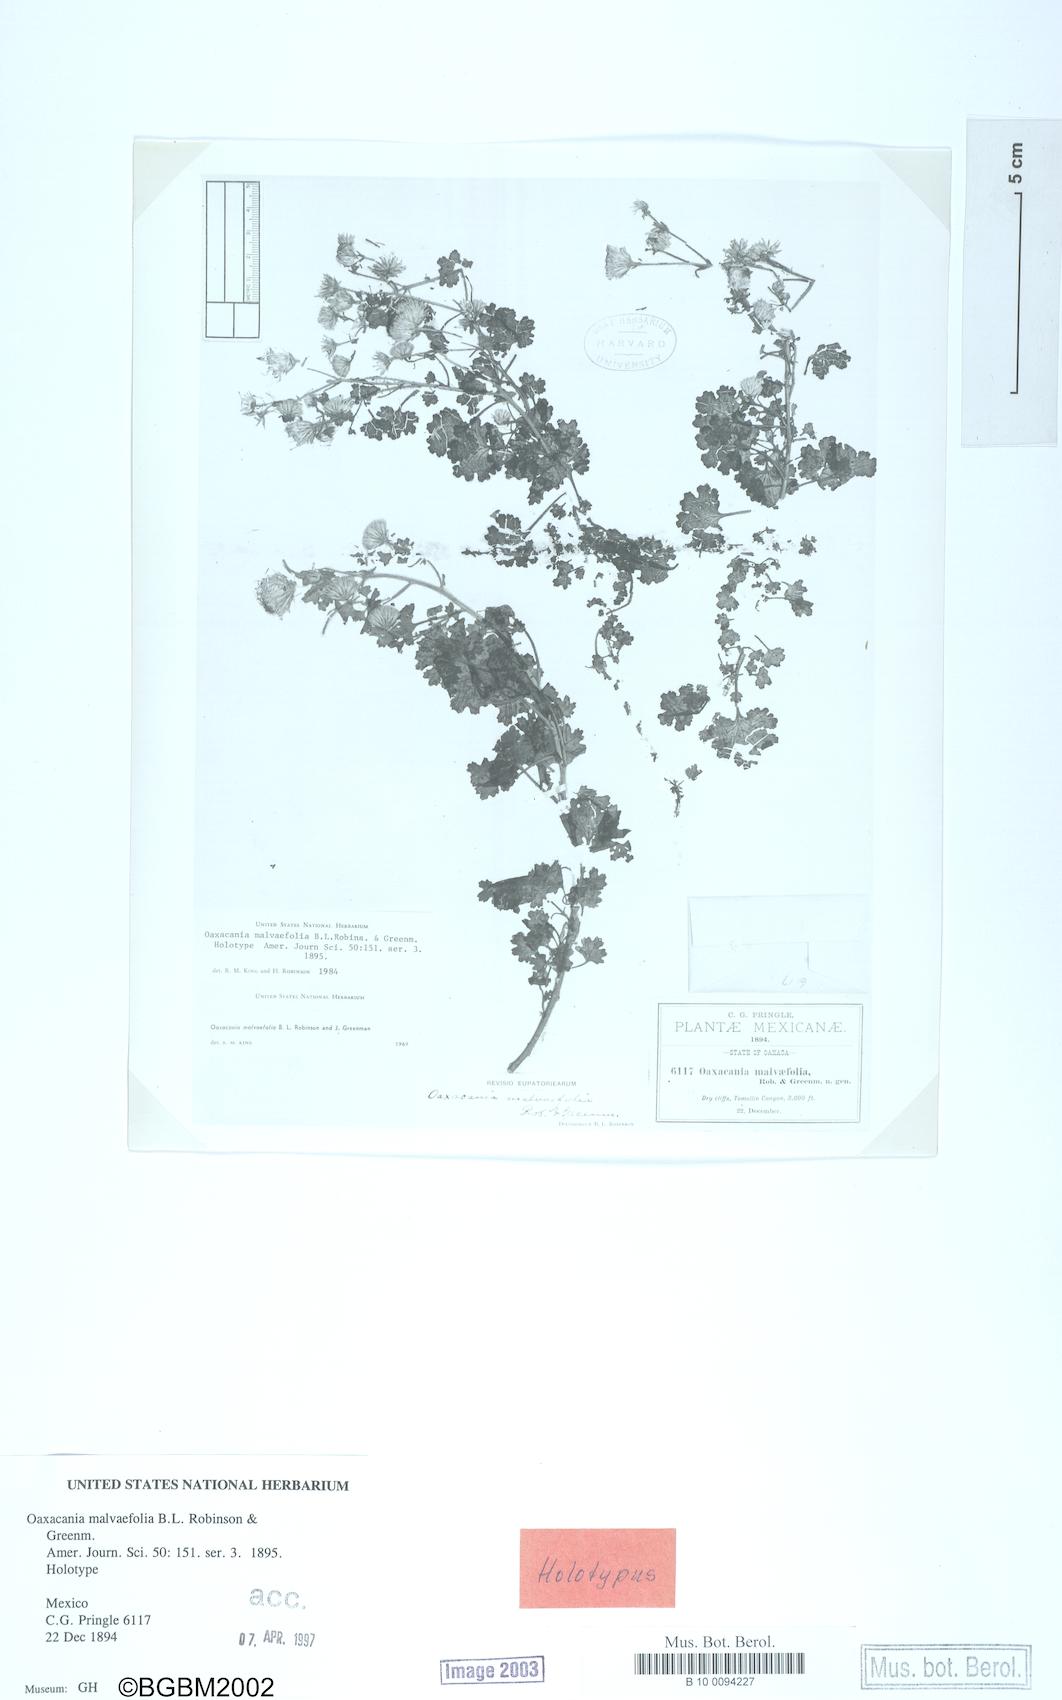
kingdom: Plantae
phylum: Tracheophyta
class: Magnoliopsida
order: Asterales
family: Asteraceae
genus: Oaxacania
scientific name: Oaxacania malvifolia
